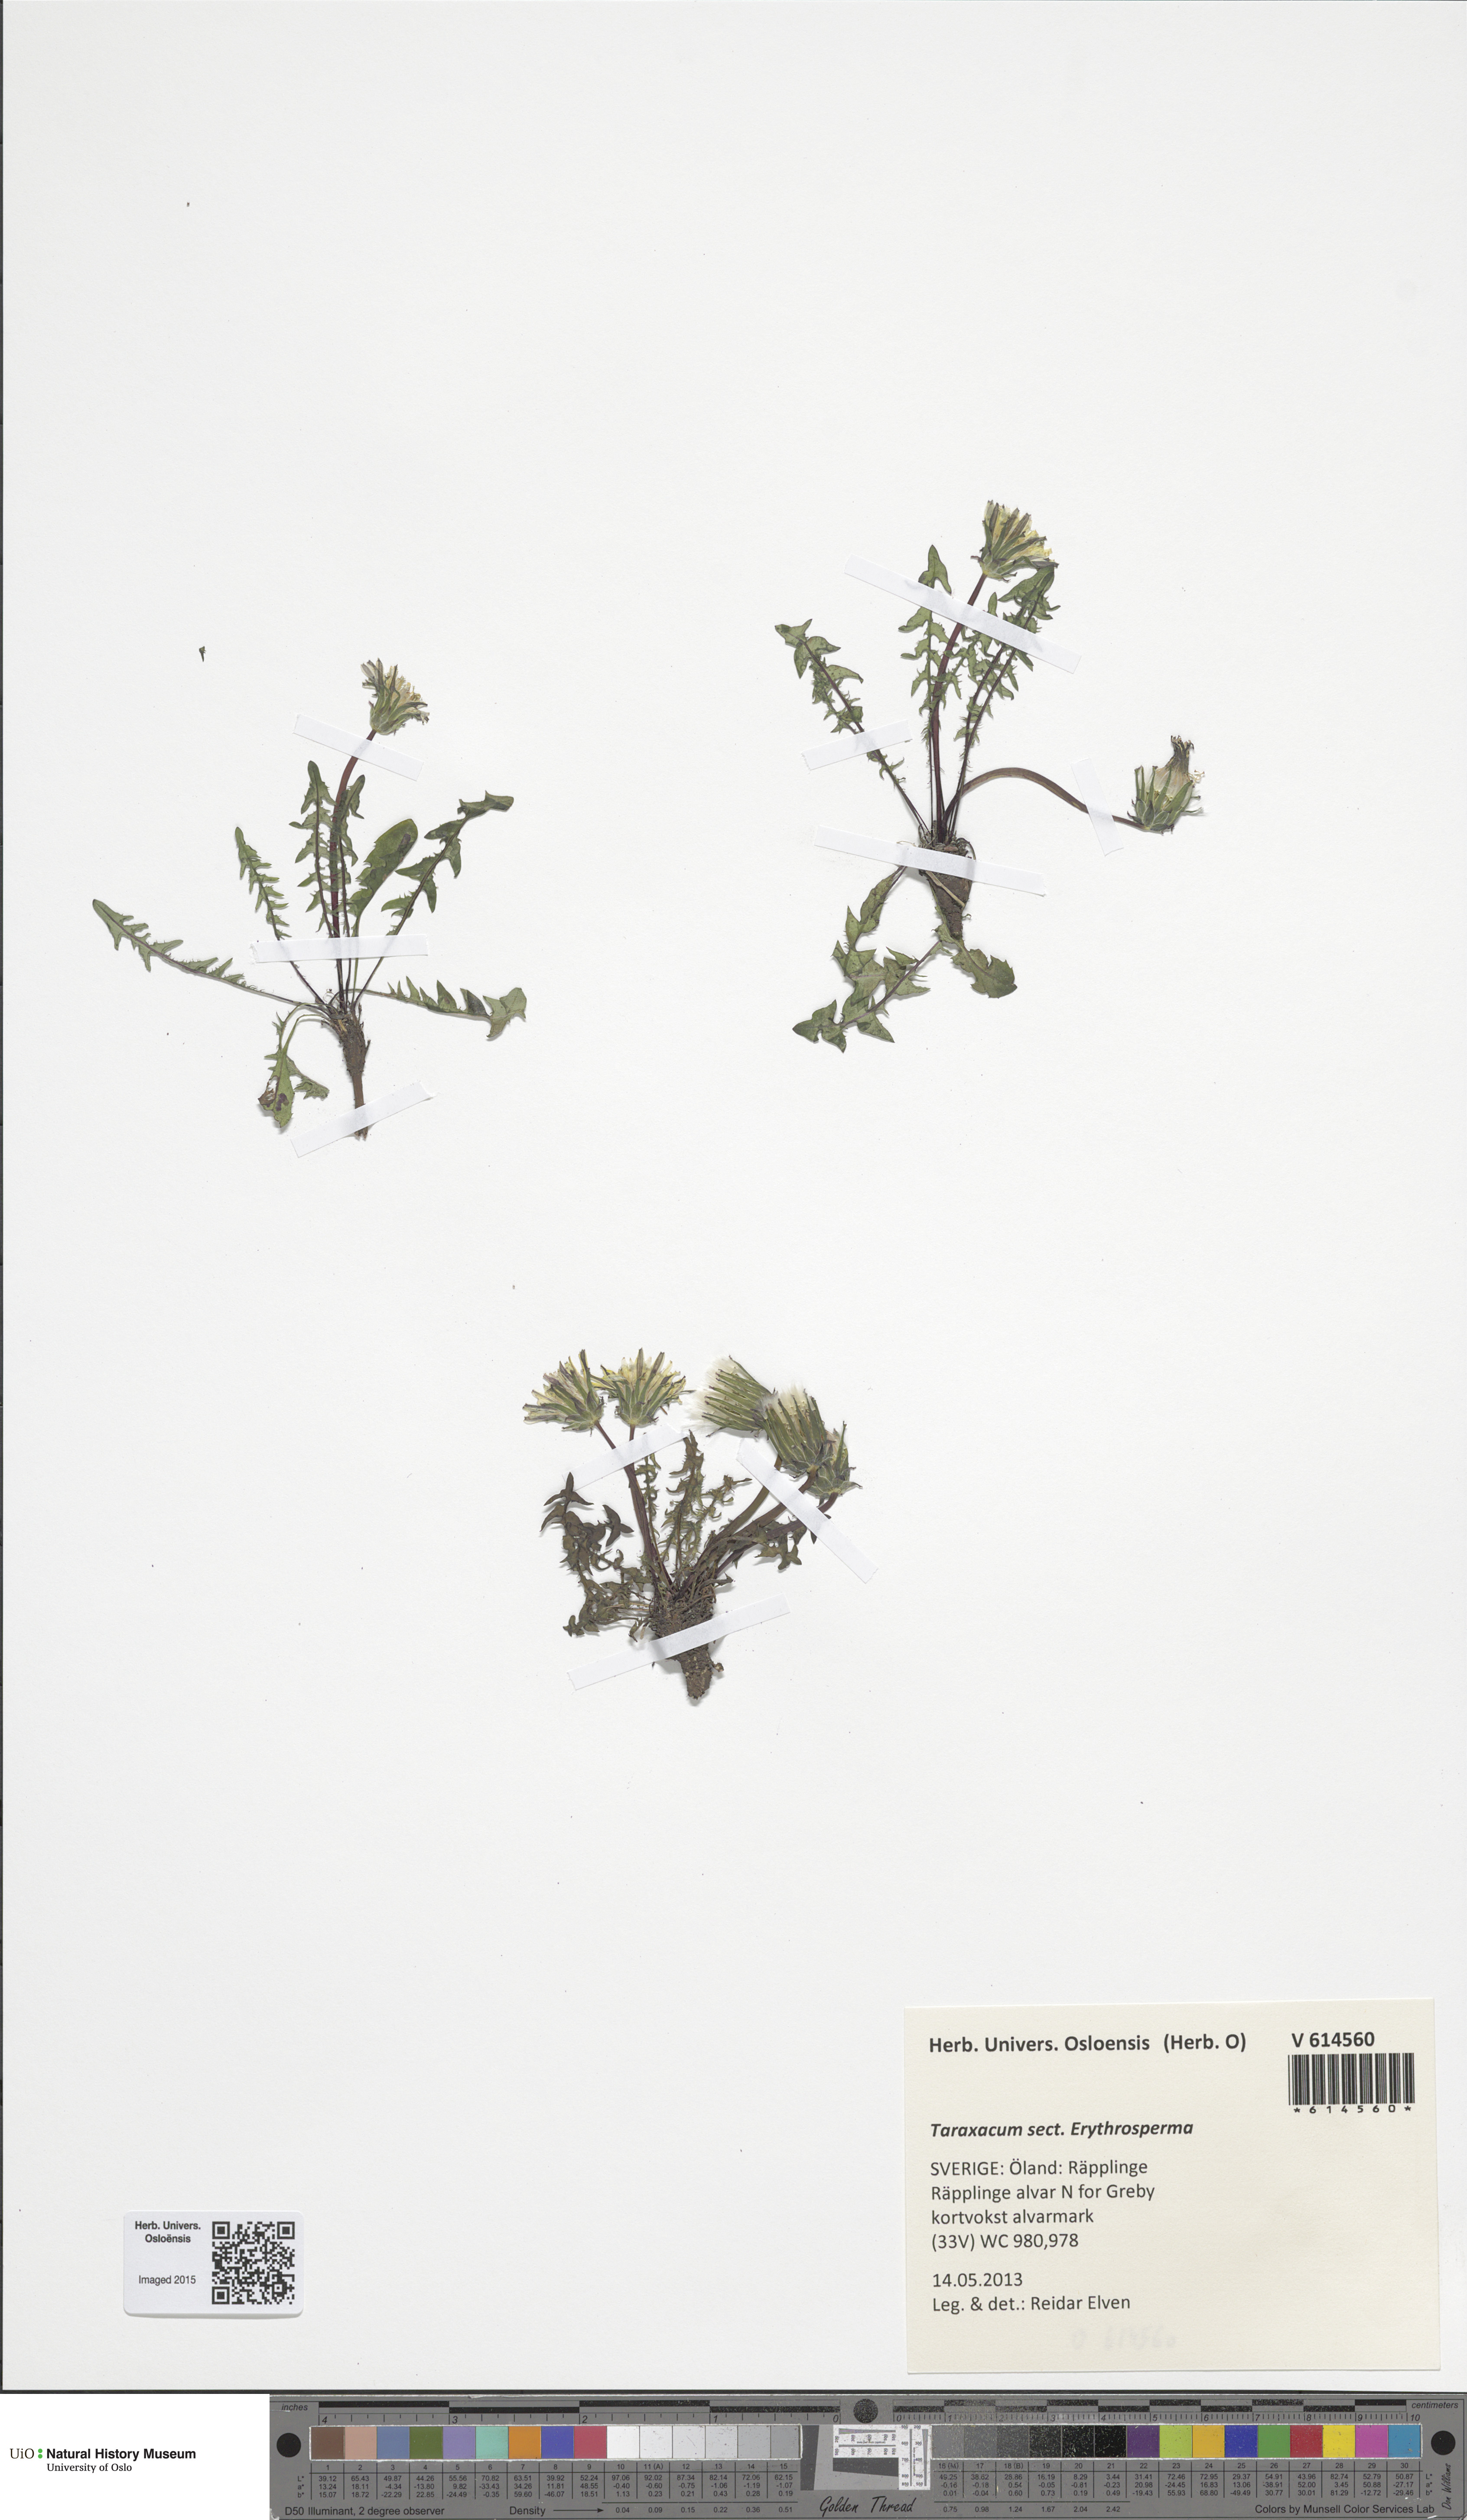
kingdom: Plantae
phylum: Tracheophyta
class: Magnoliopsida
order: Asterales
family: Asteraceae
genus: Taraxacum
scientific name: Taraxacum
